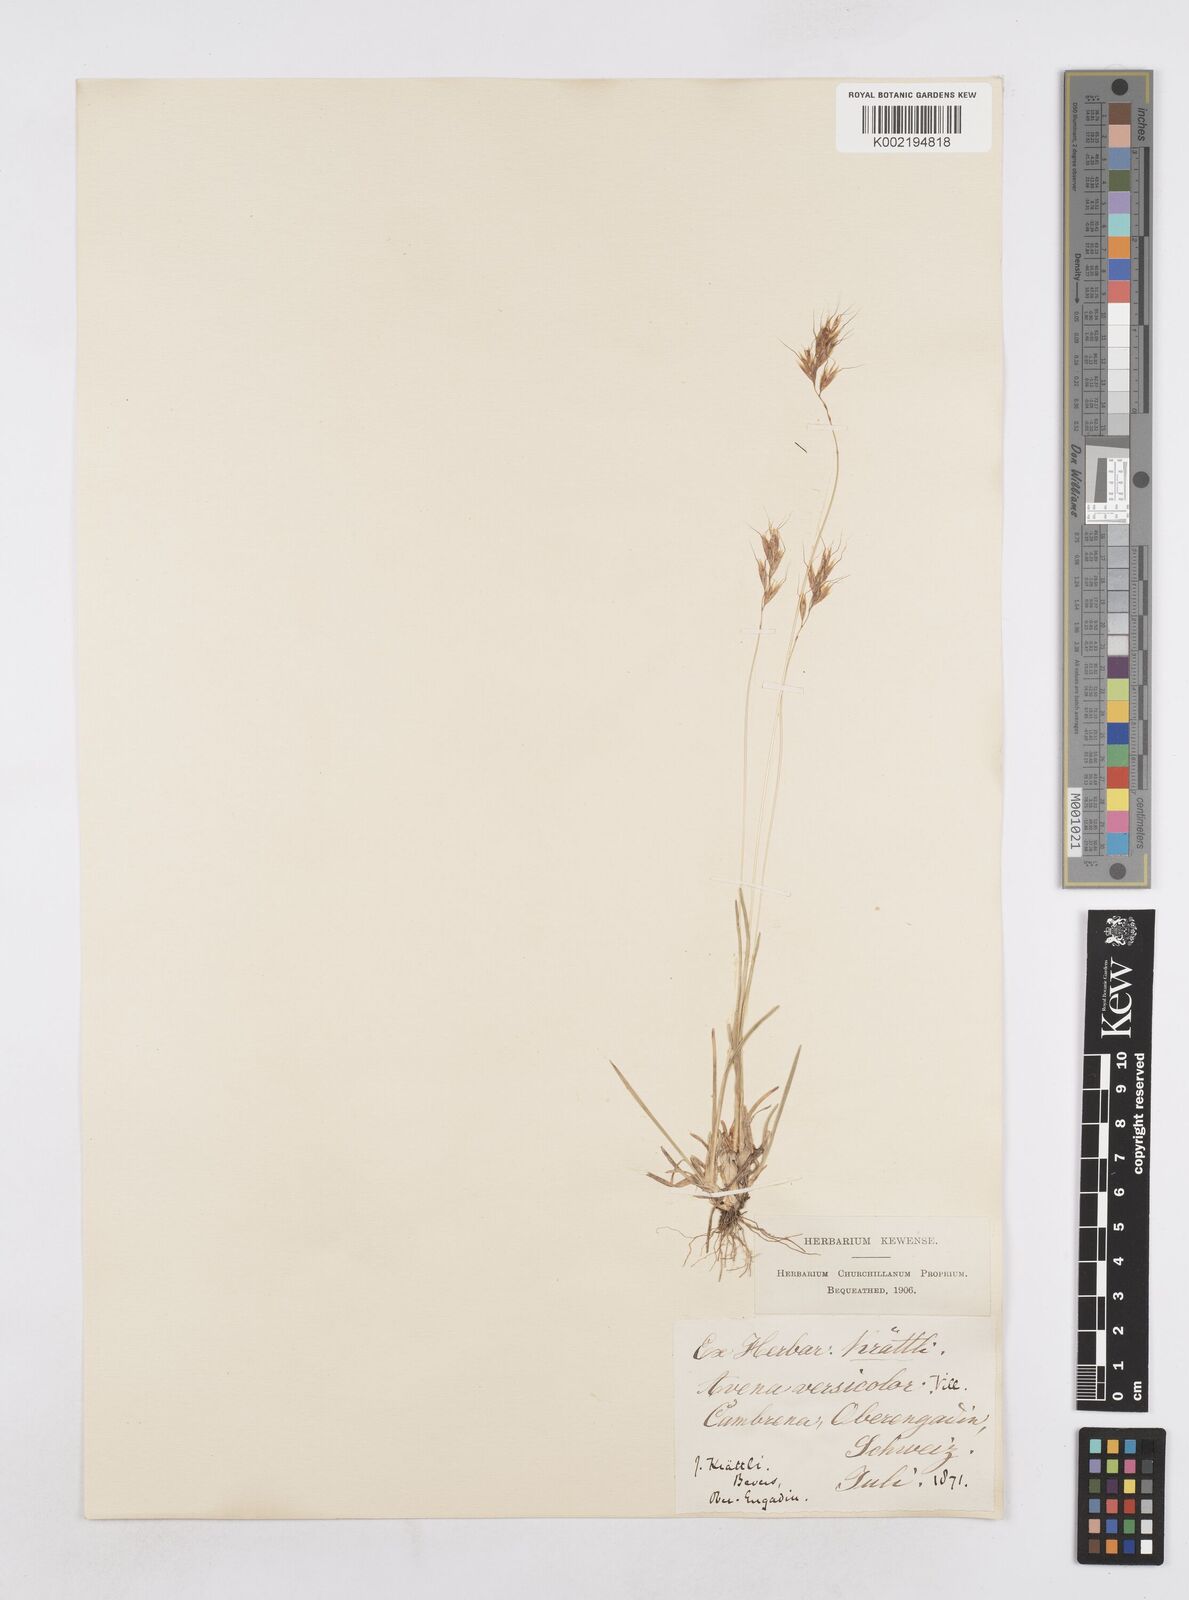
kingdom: Plantae
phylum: Tracheophyta
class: Liliopsida
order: Poales
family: Poaceae
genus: Helictochloa
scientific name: Helictochloa versicolor
